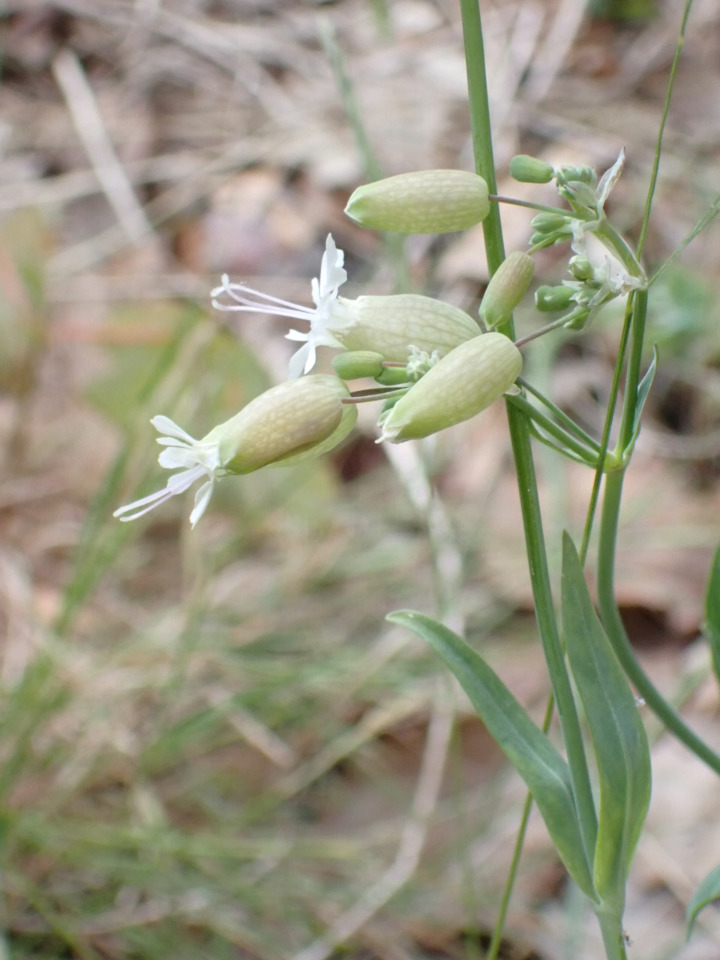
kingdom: Plantae
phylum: Tracheophyta
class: Magnoliopsida
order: Caryophyllales
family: Caryophyllaceae
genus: Silene
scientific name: Silene vulgaris
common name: Blæresmælde
